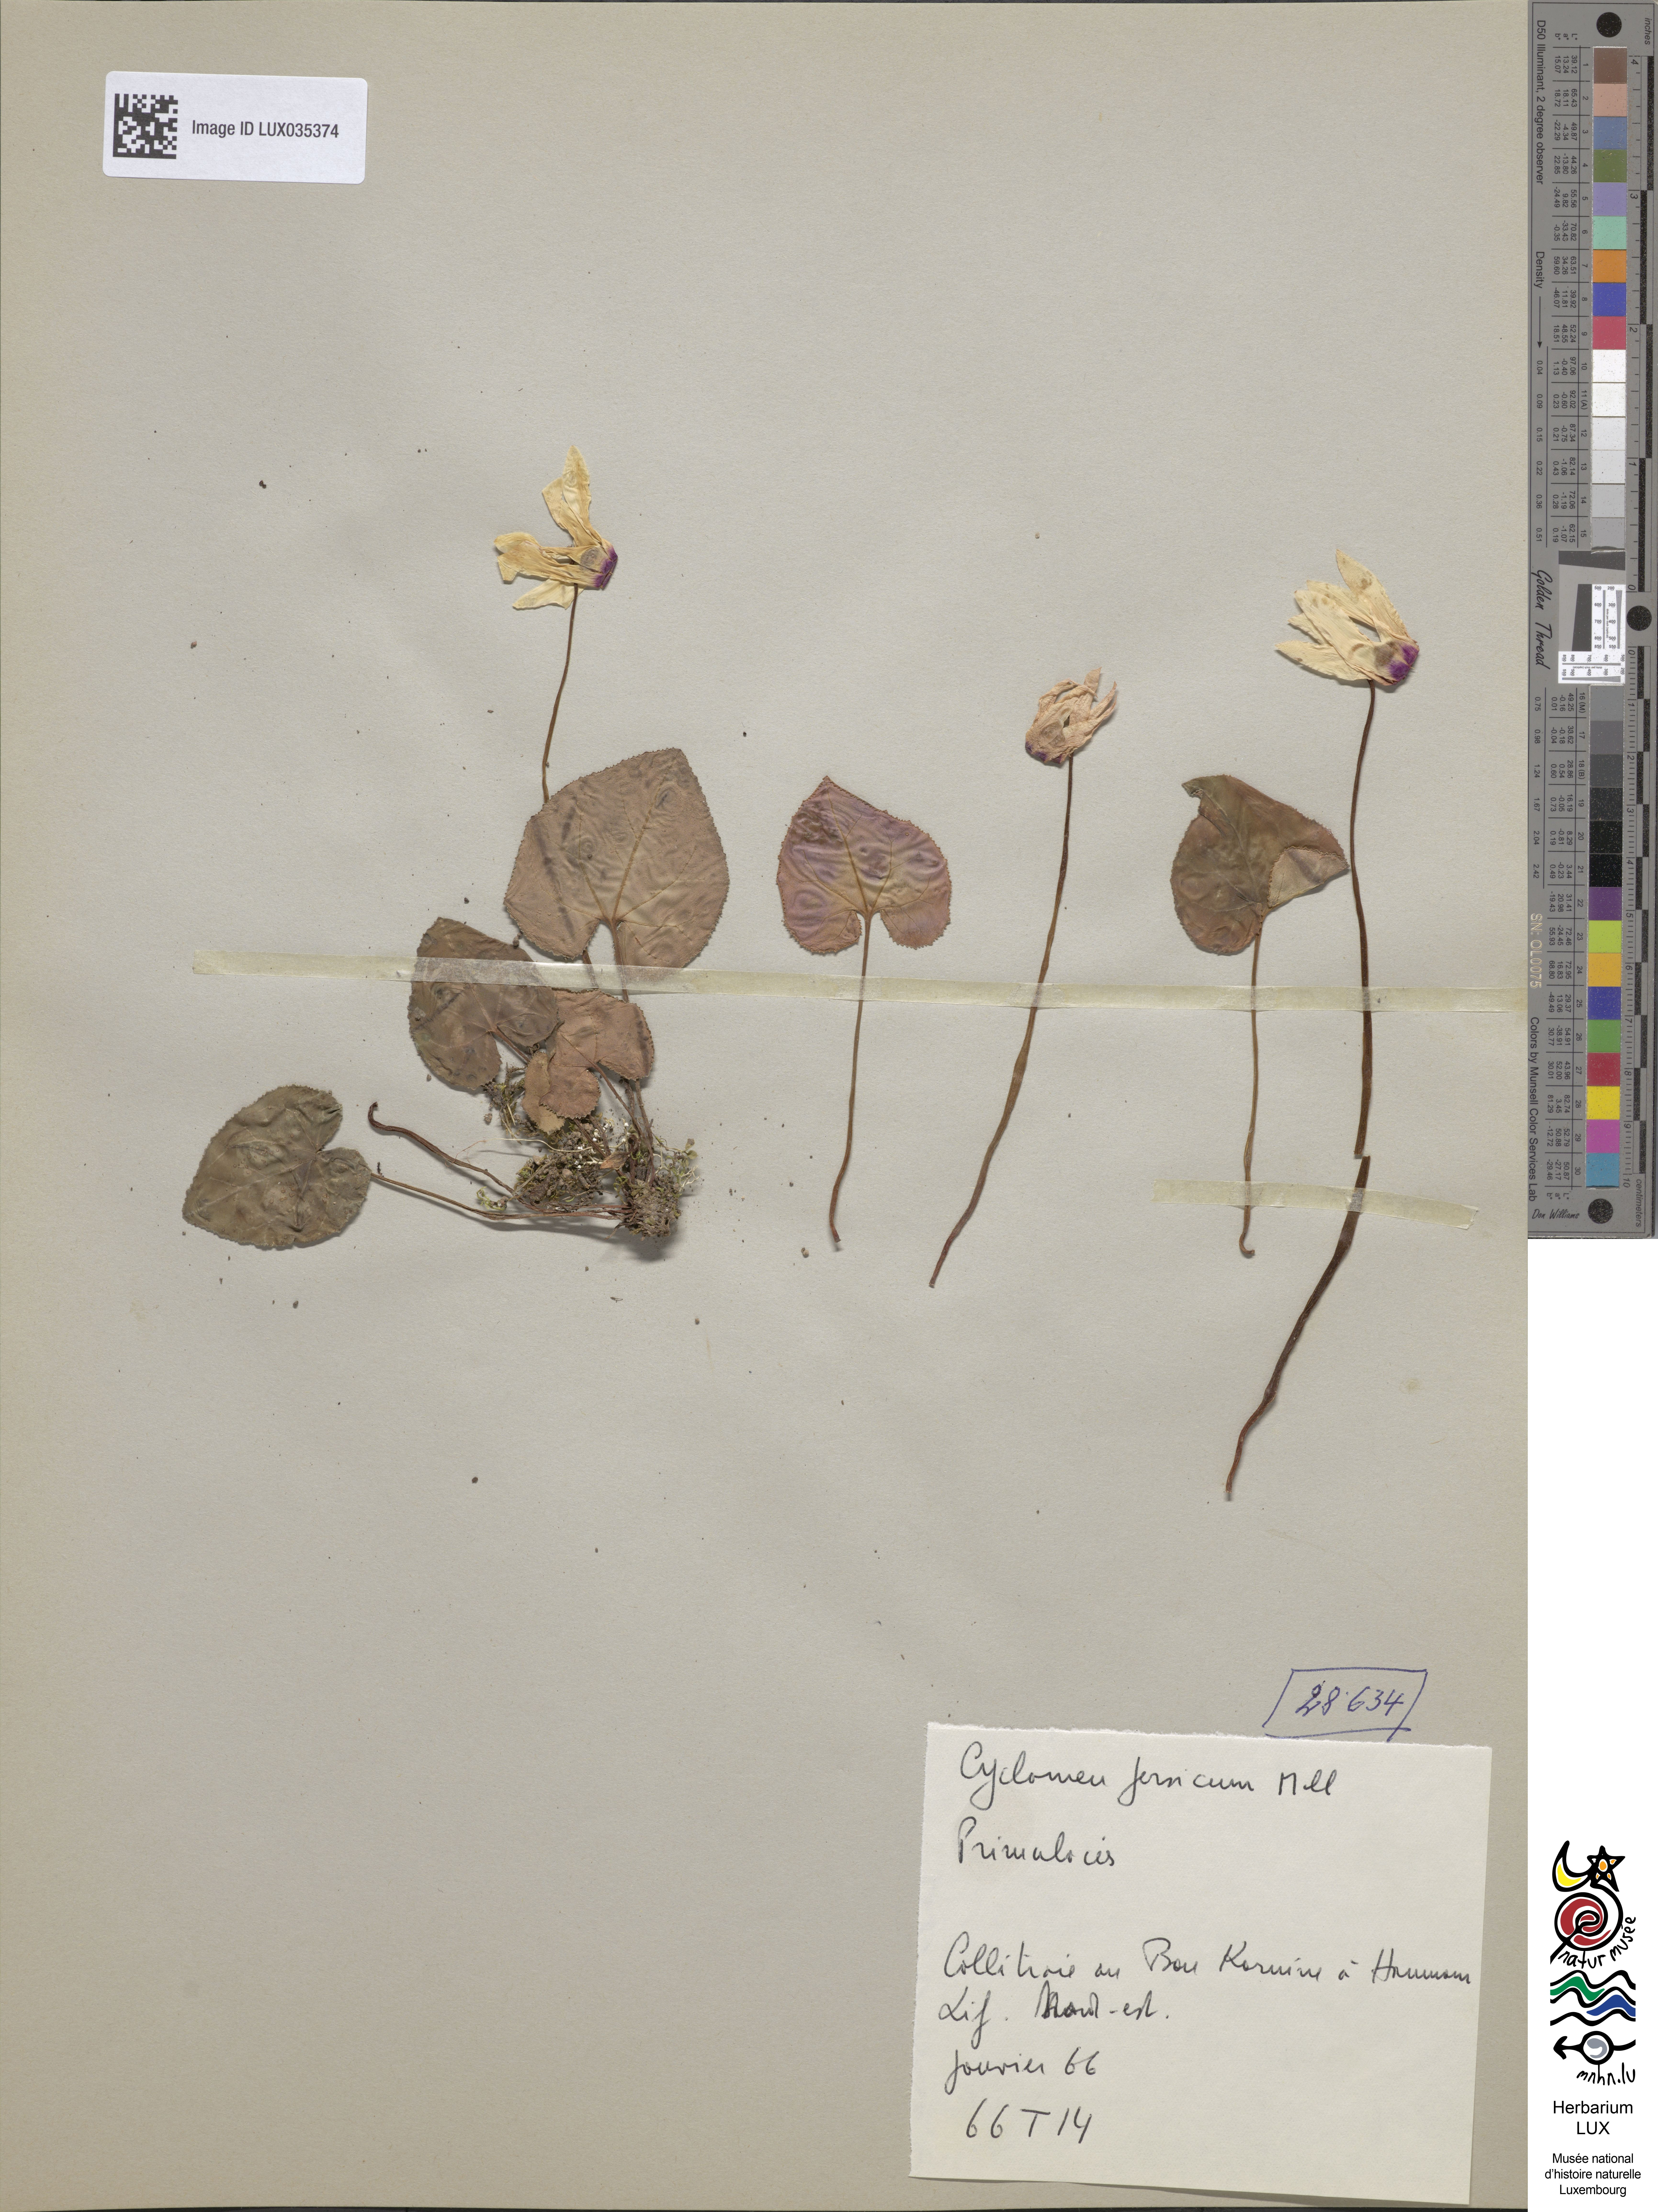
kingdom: Plantae
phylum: Tracheophyta
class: Magnoliopsida
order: Ericales
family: Primulaceae
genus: Cyclamen
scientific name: Cyclamen persicum
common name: Florist's cyclamen
